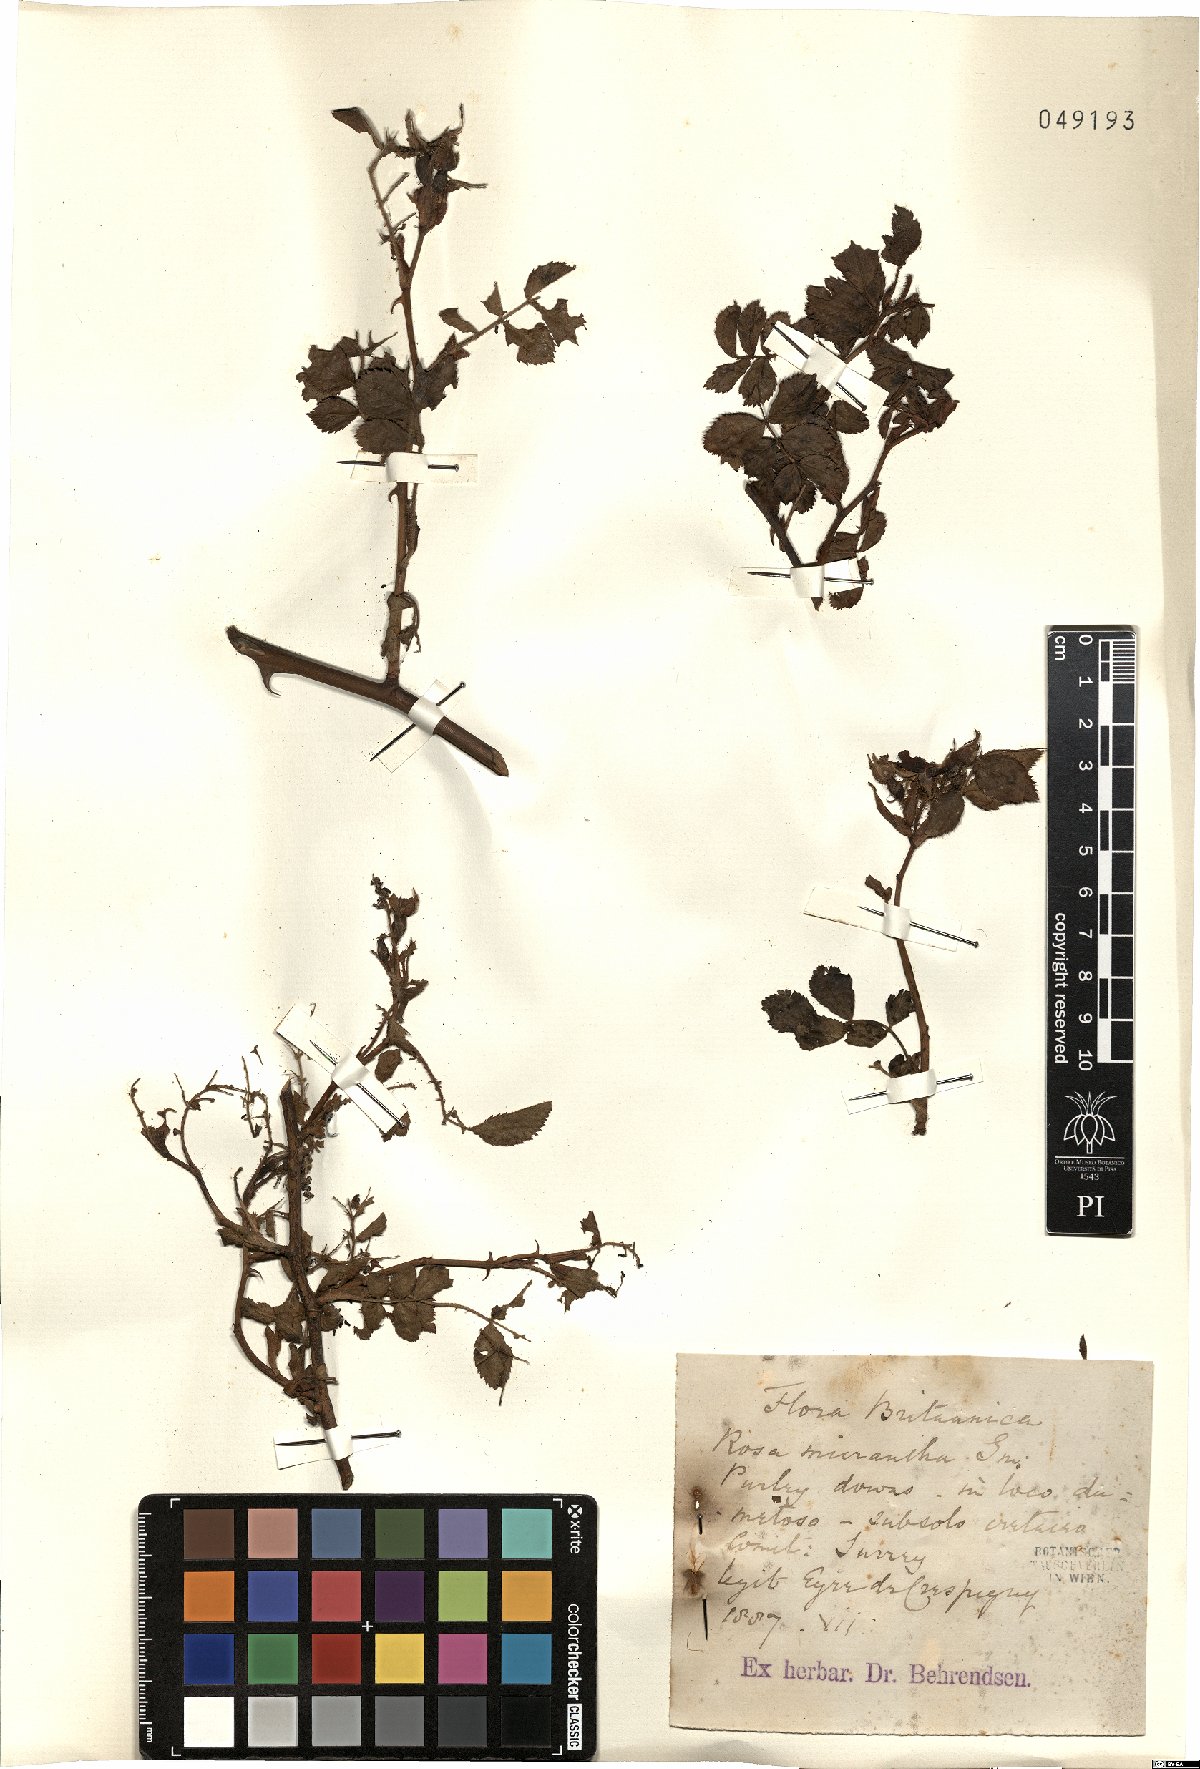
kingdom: Plantae
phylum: Tracheophyta
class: Magnoliopsida
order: Rosales
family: Rosaceae
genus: Rosa
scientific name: Rosa micrantha
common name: Small-flowered sweet-briar
